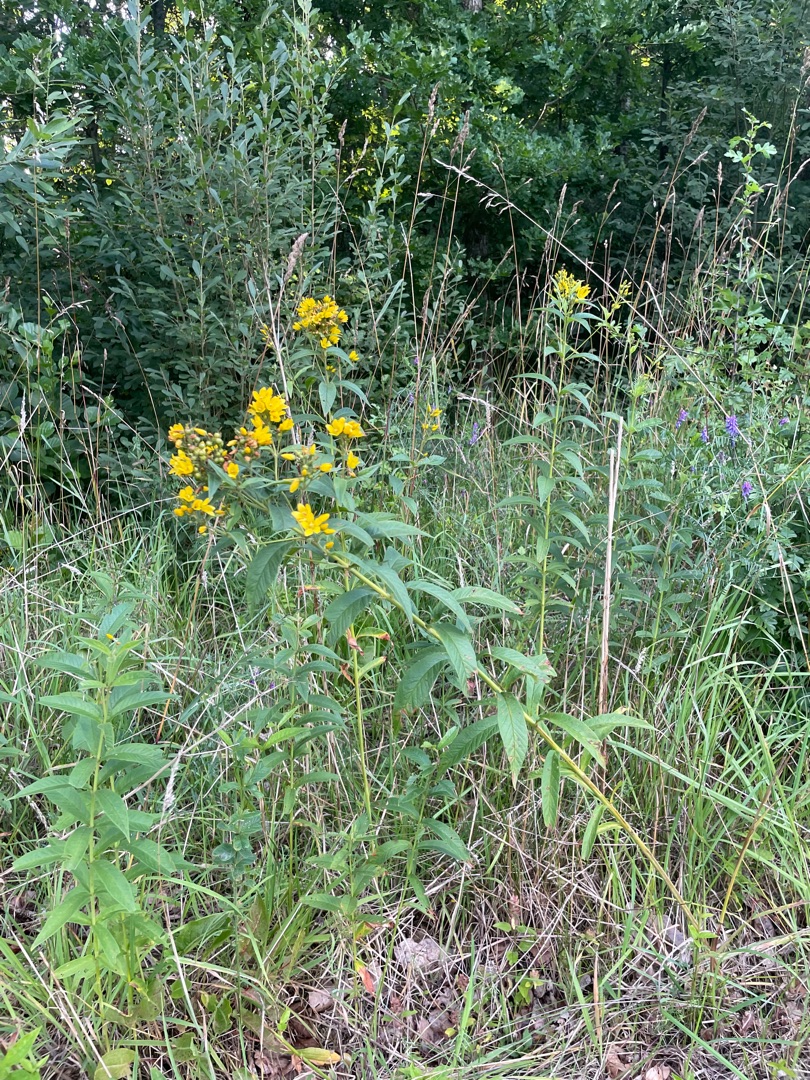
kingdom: Plantae
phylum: Tracheophyta
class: Magnoliopsida
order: Ericales
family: Primulaceae
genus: Lysimachia
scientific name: Lysimachia vulgaris
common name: Almindelig fredløs
